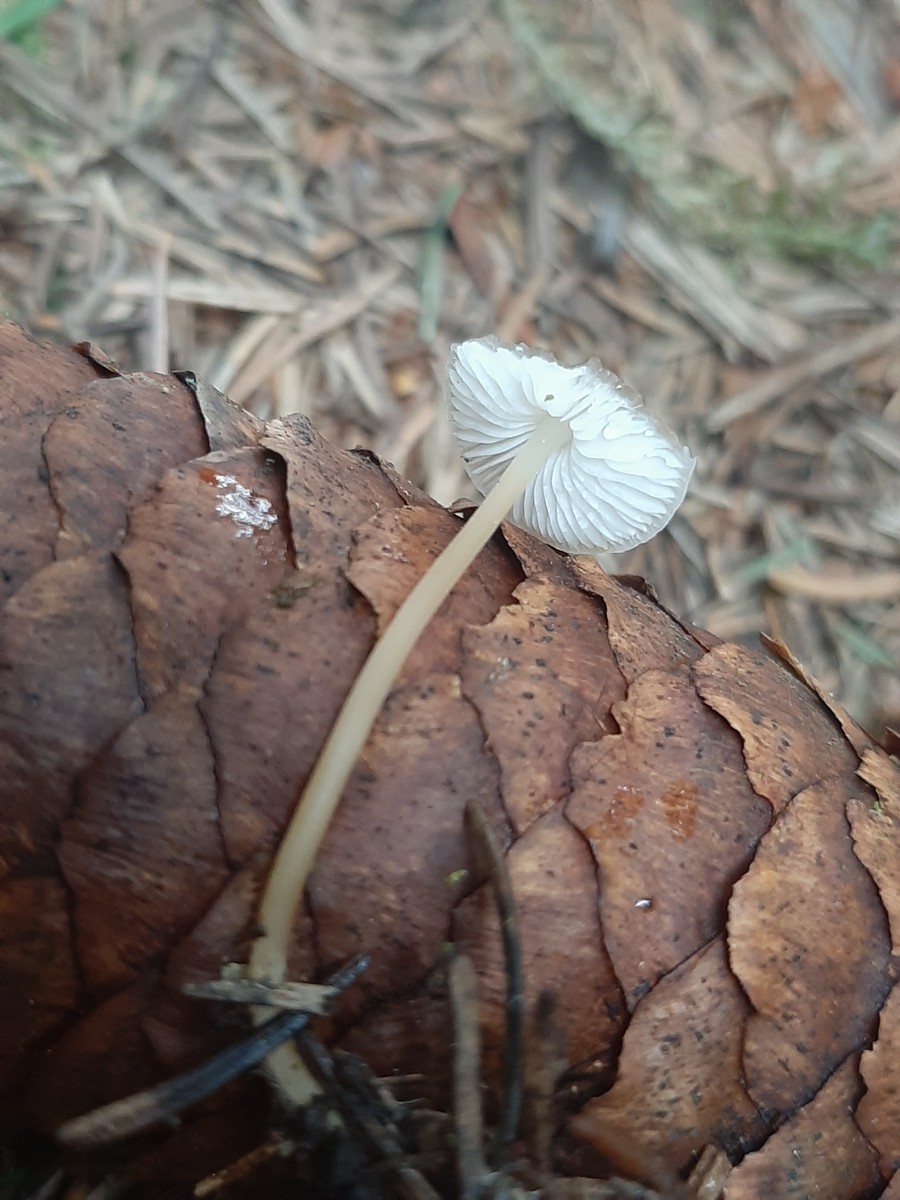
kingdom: Fungi
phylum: Basidiomycota
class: Agaricomycetes
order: Agaricales
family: Physalacriaceae
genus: Strobilurus
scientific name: Strobilurus esculentus
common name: gran-koglehat
